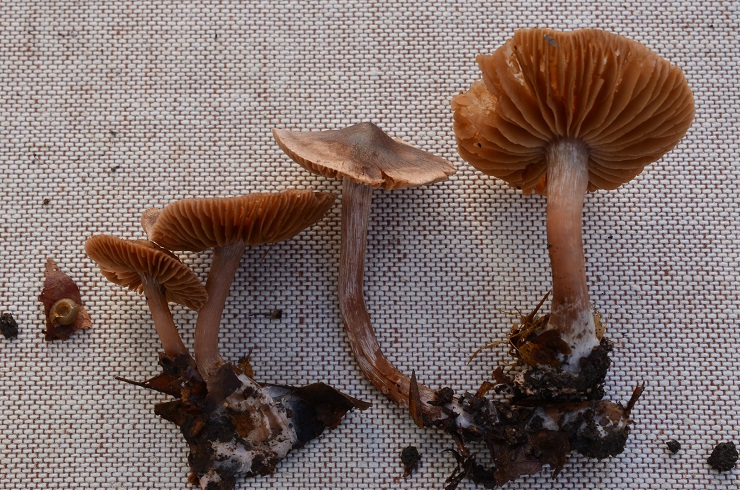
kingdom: Fungi
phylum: Basidiomycota
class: Agaricomycetes
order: Agaricales
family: Cortinariaceae
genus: Cortinarius
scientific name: Cortinarius
